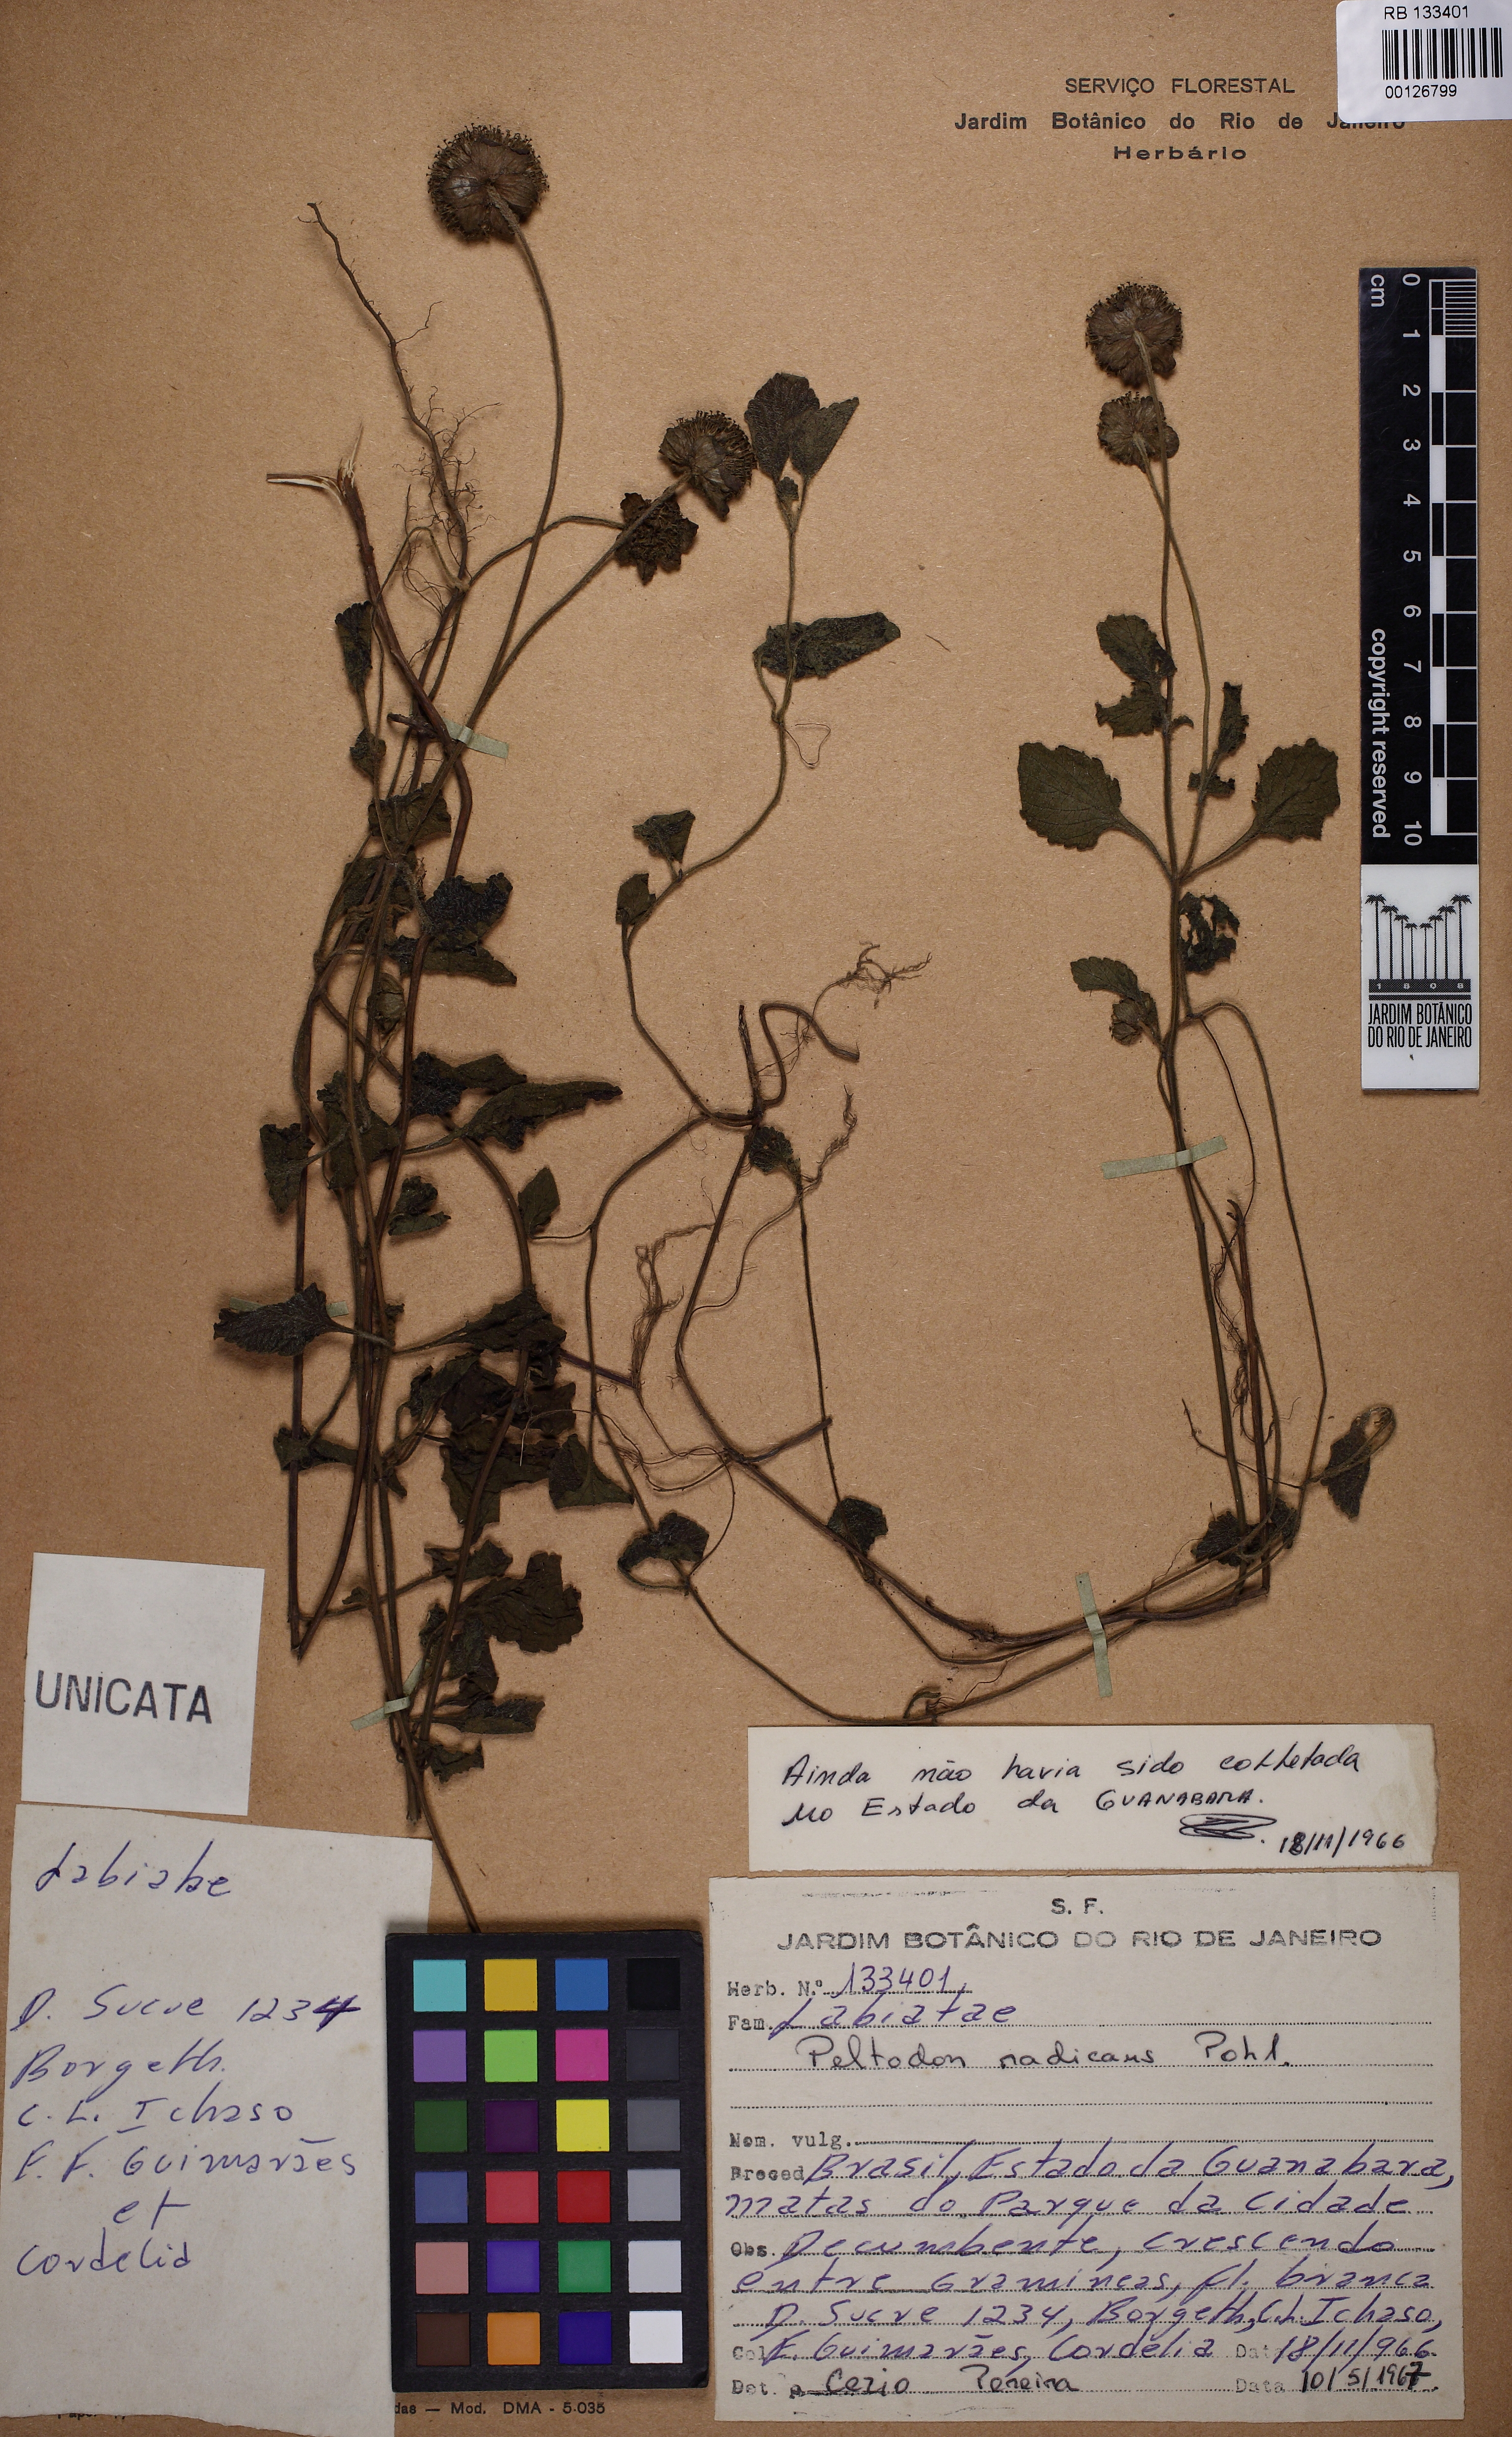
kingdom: Plantae
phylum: Tracheophyta
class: Magnoliopsida
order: Lamiales
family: Lamiaceae
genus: Hyptis
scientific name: Hyptis radicans
